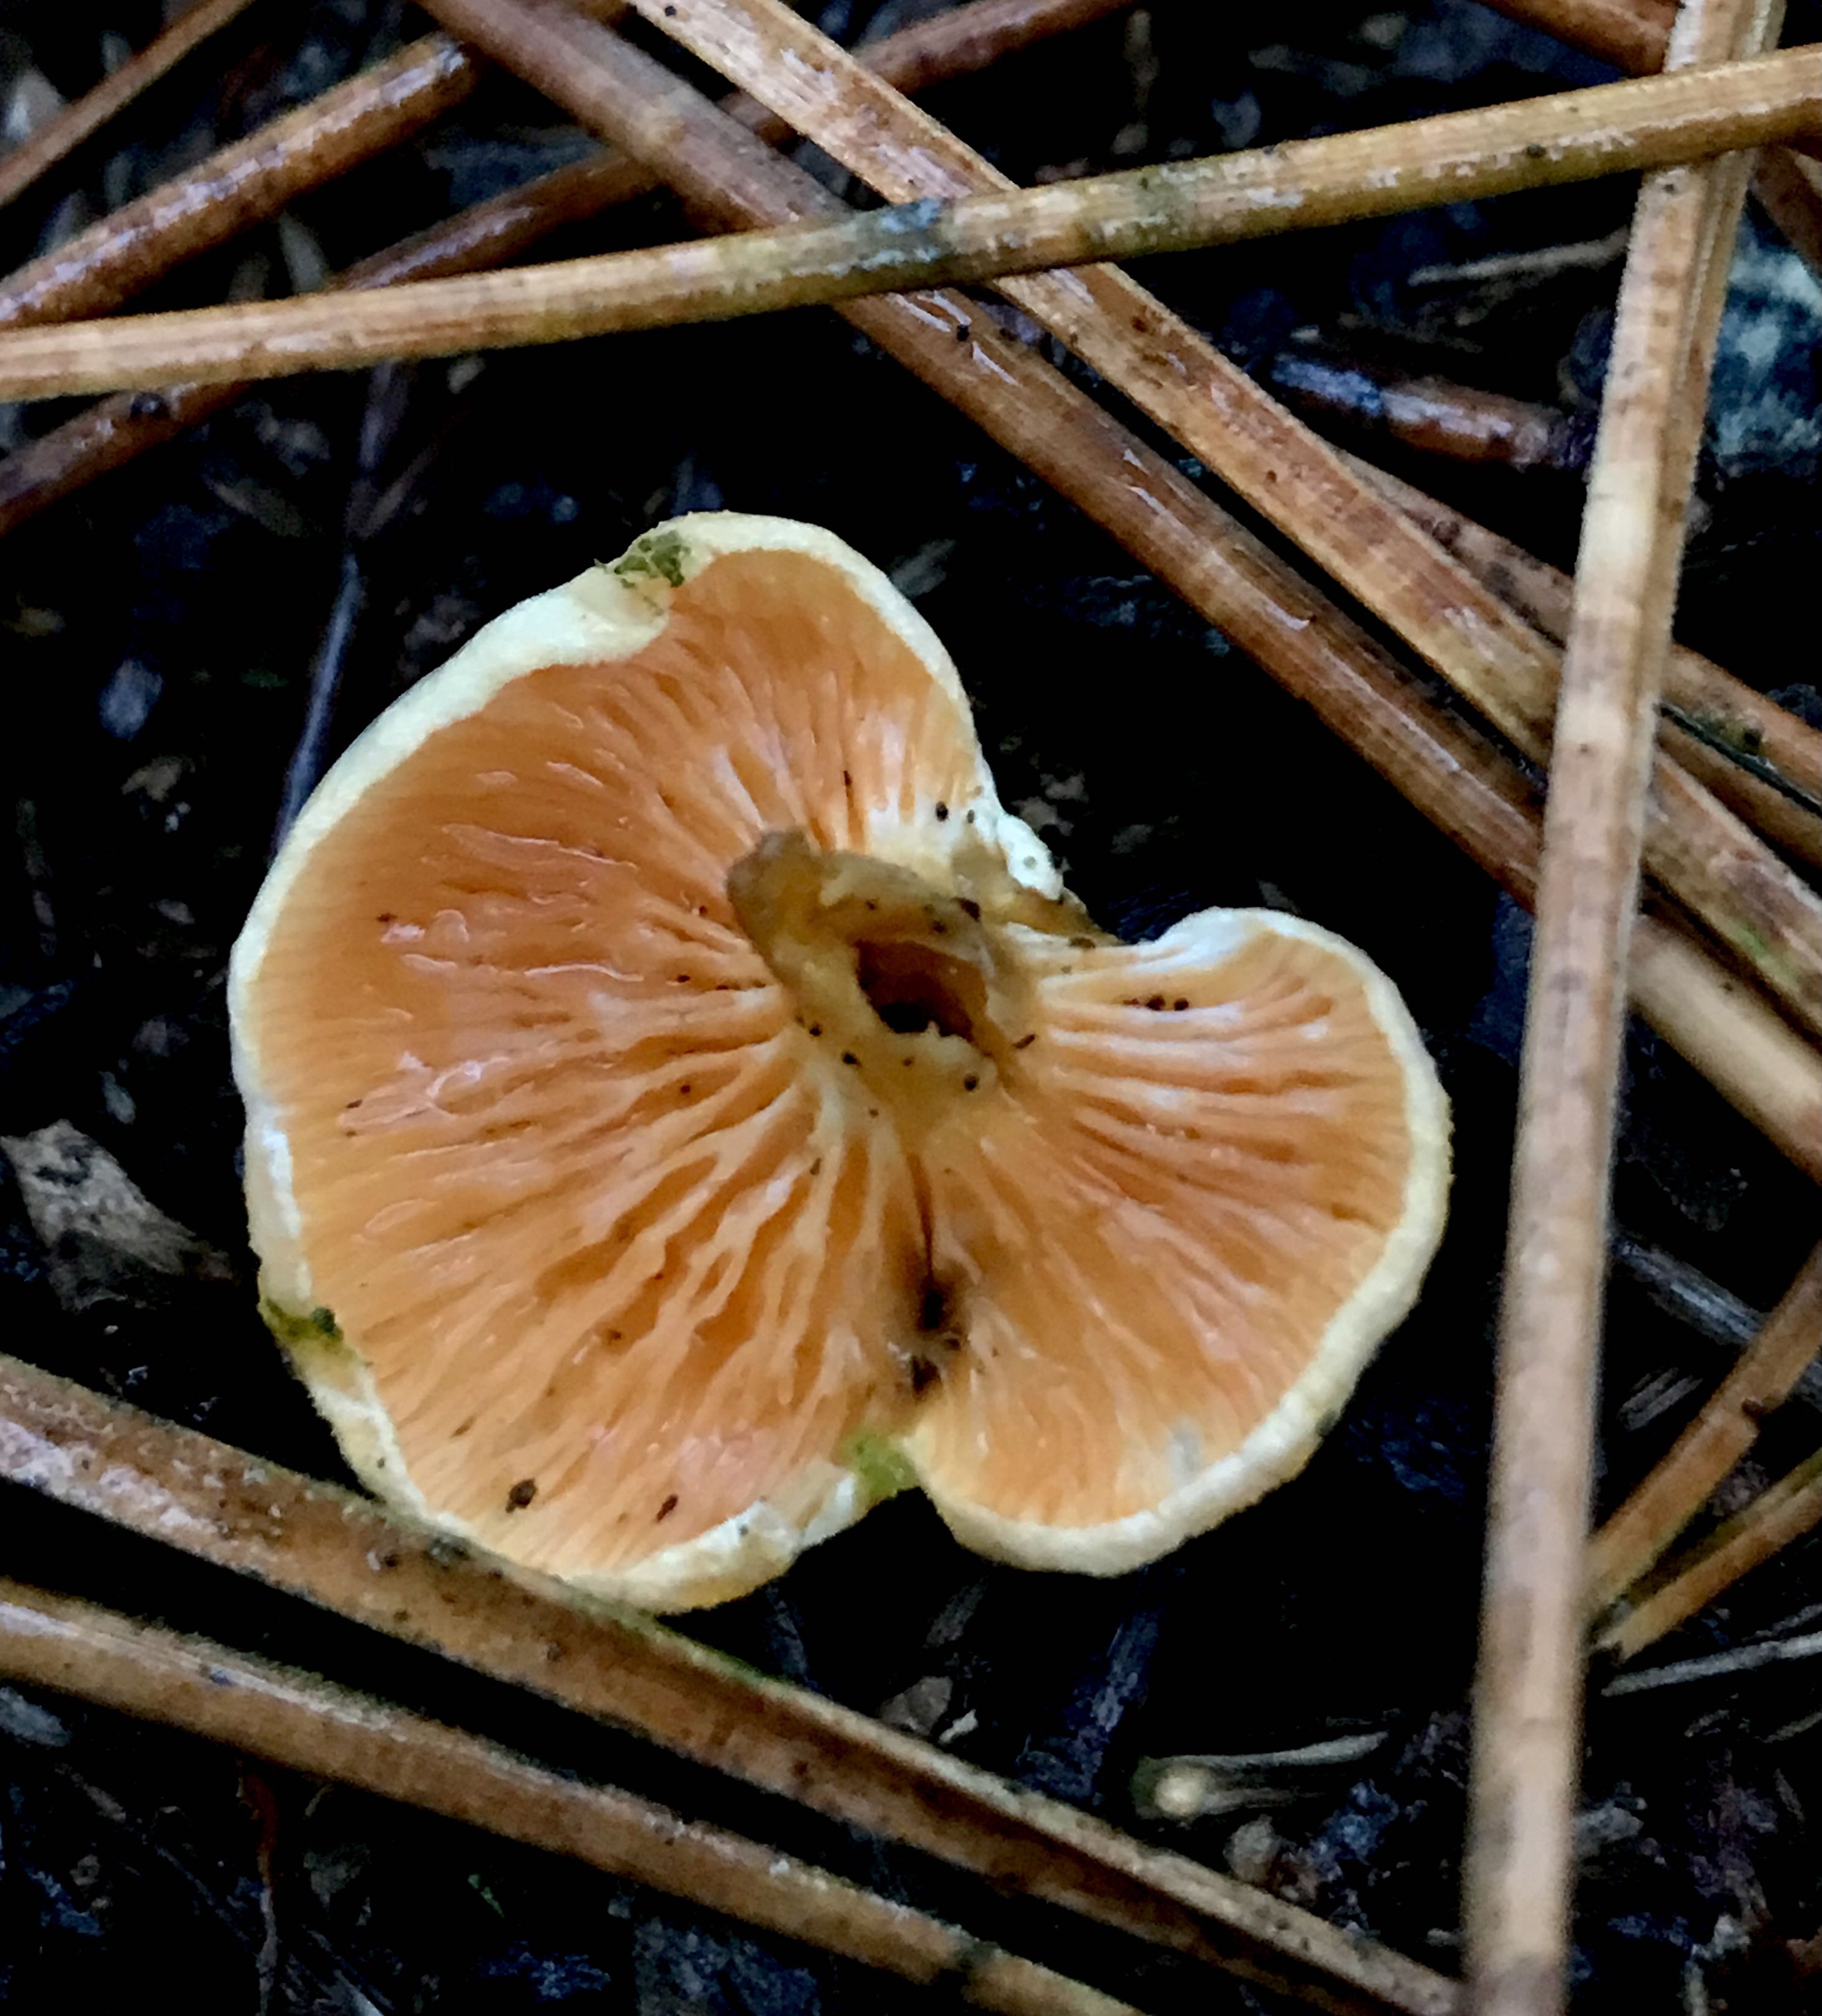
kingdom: Fungi
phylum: Basidiomycota
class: Agaricomycetes
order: Boletales
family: Hygrophoropsidaceae
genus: Hygrophoropsis
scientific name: Hygrophoropsis aurantiaca
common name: almindelig orangekantarel
